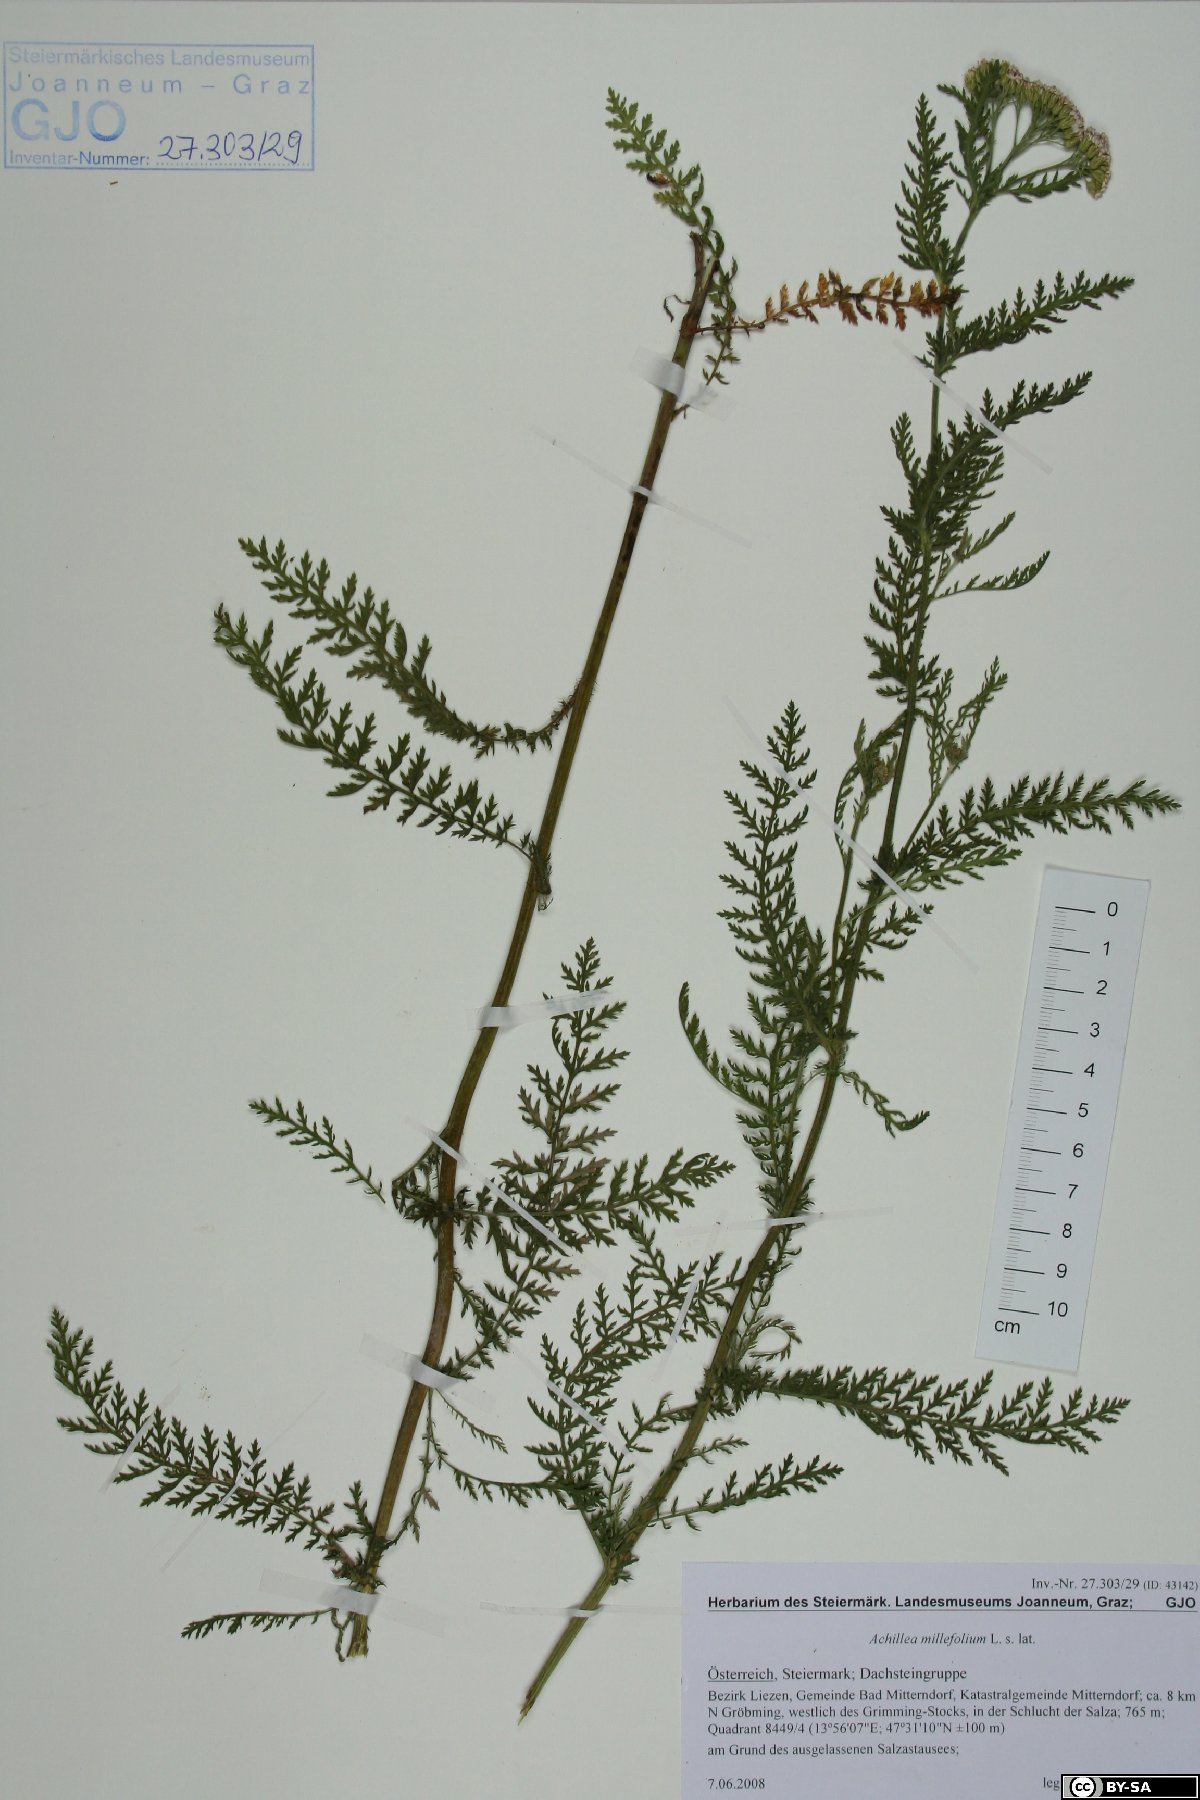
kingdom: Plantae
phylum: Tracheophyta
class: Magnoliopsida
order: Asterales
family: Asteraceae
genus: Achillea
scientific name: Achillea millefolium
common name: Yarrow
